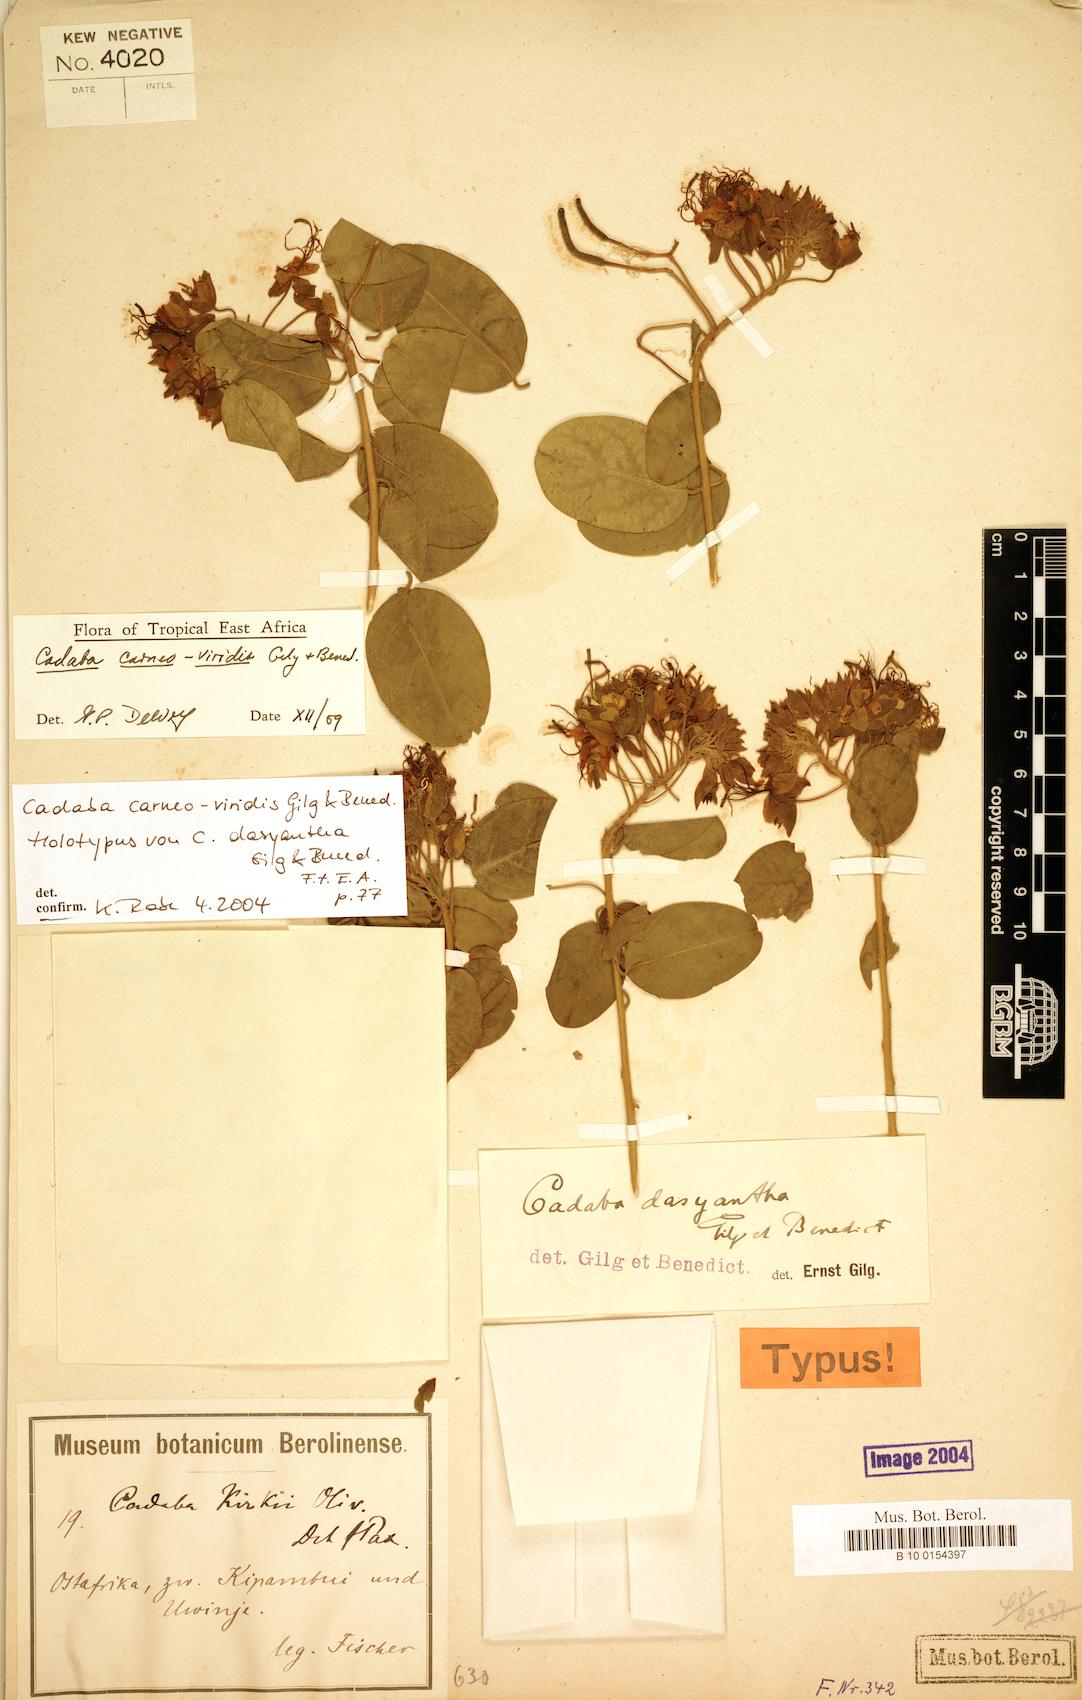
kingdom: Plantae
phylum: Tracheophyta
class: Magnoliopsida
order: Brassicales
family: Capparaceae
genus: Cadaba
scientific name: Cadaba carneoviridis
